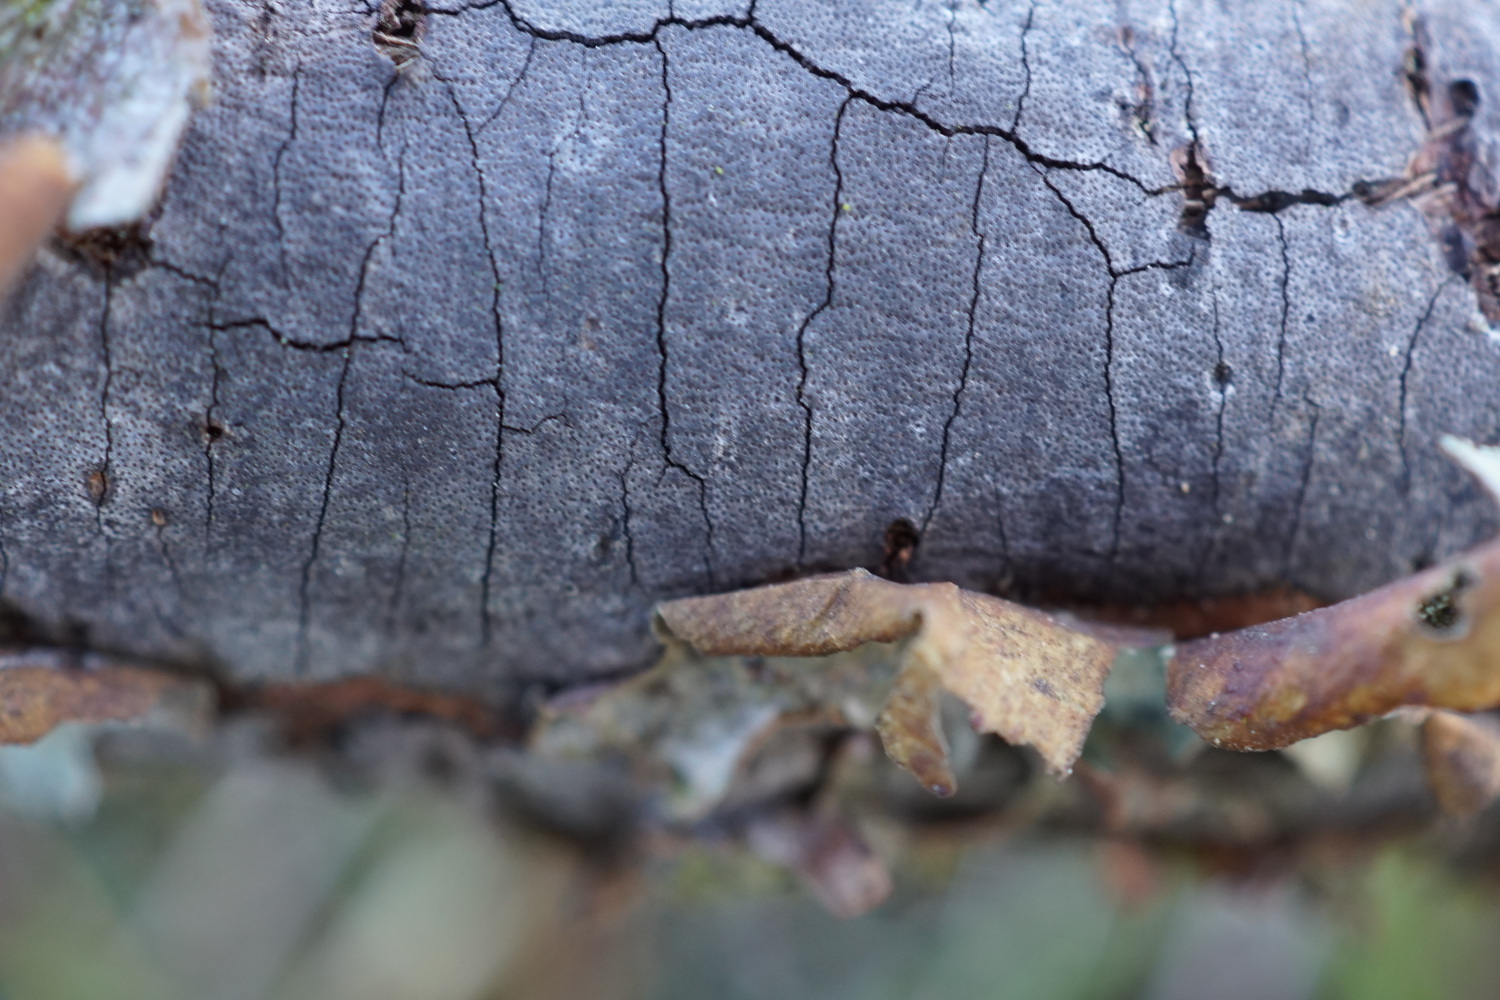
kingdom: Fungi
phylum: Ascomycota
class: Sordariomycetes
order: Xylariales
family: Diatrypaceae
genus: Diatrype
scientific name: Diatrype
